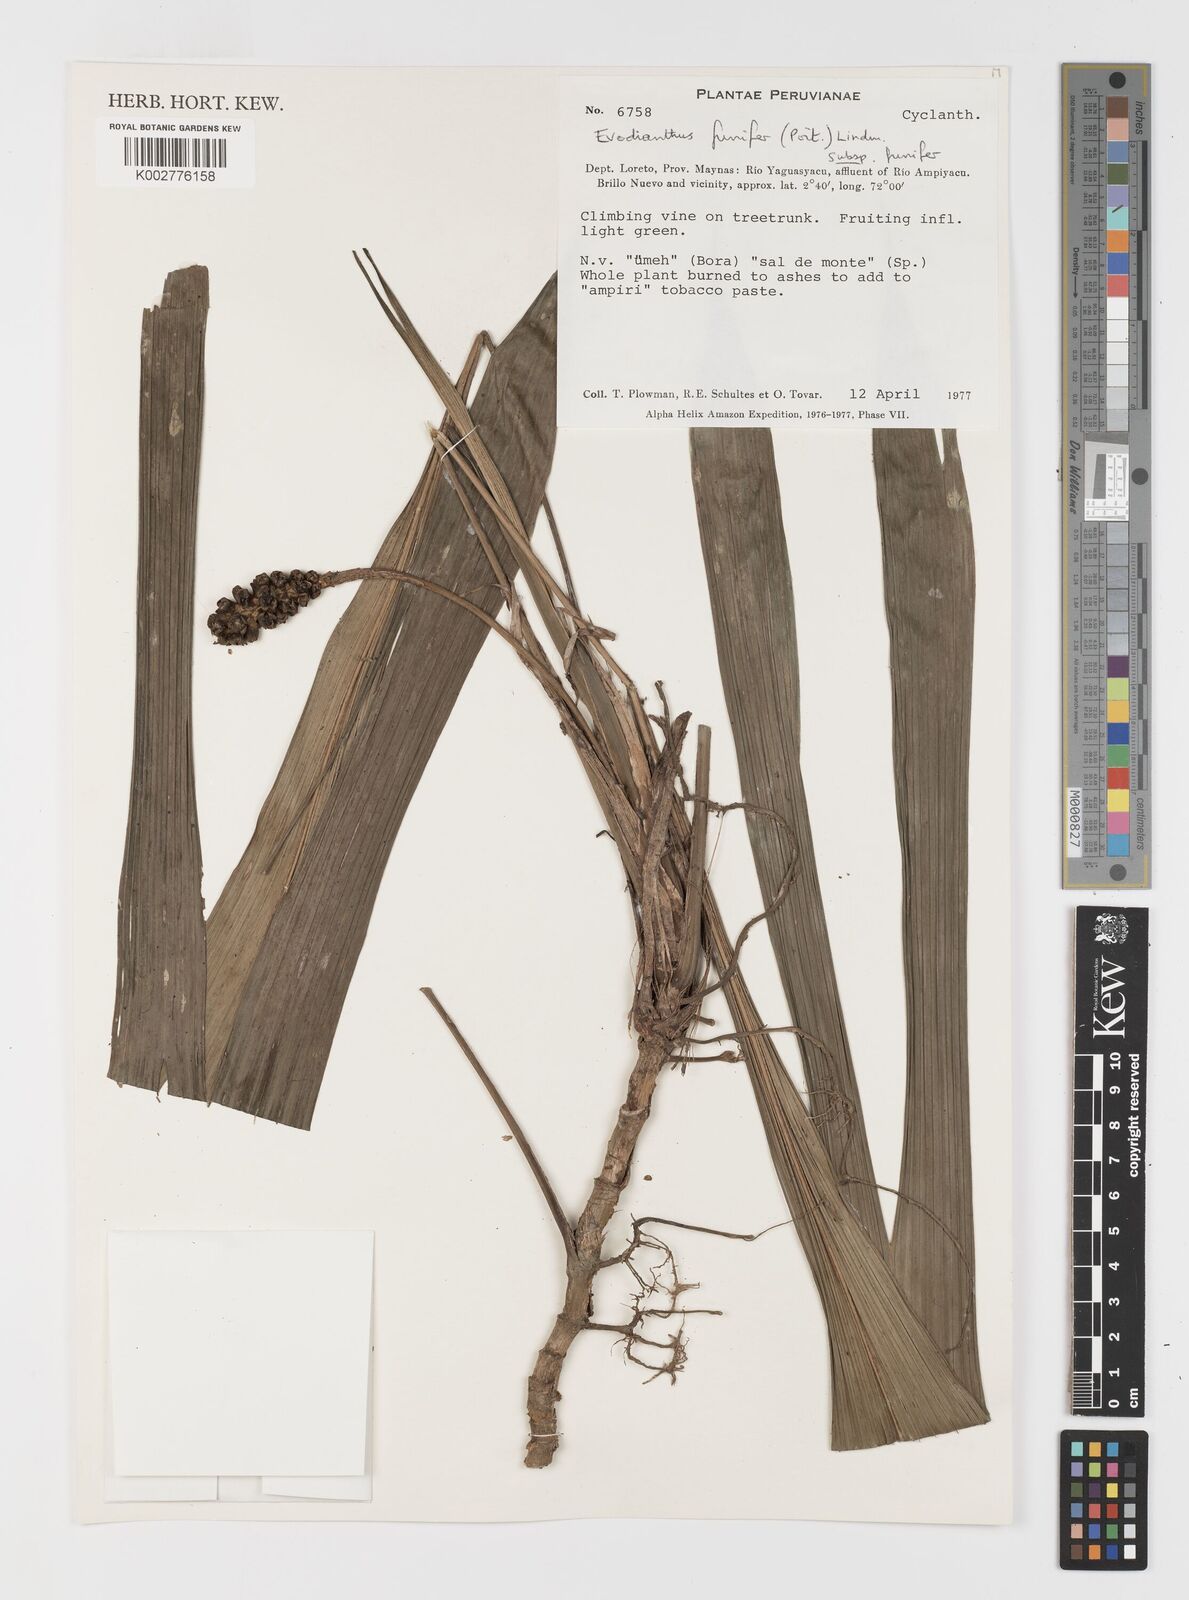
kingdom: Plantae
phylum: Tracheophyta
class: Liliopsida
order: Pandanales
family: Cyclanthaceae
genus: Evodianthus
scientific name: Evodianthus funifer
